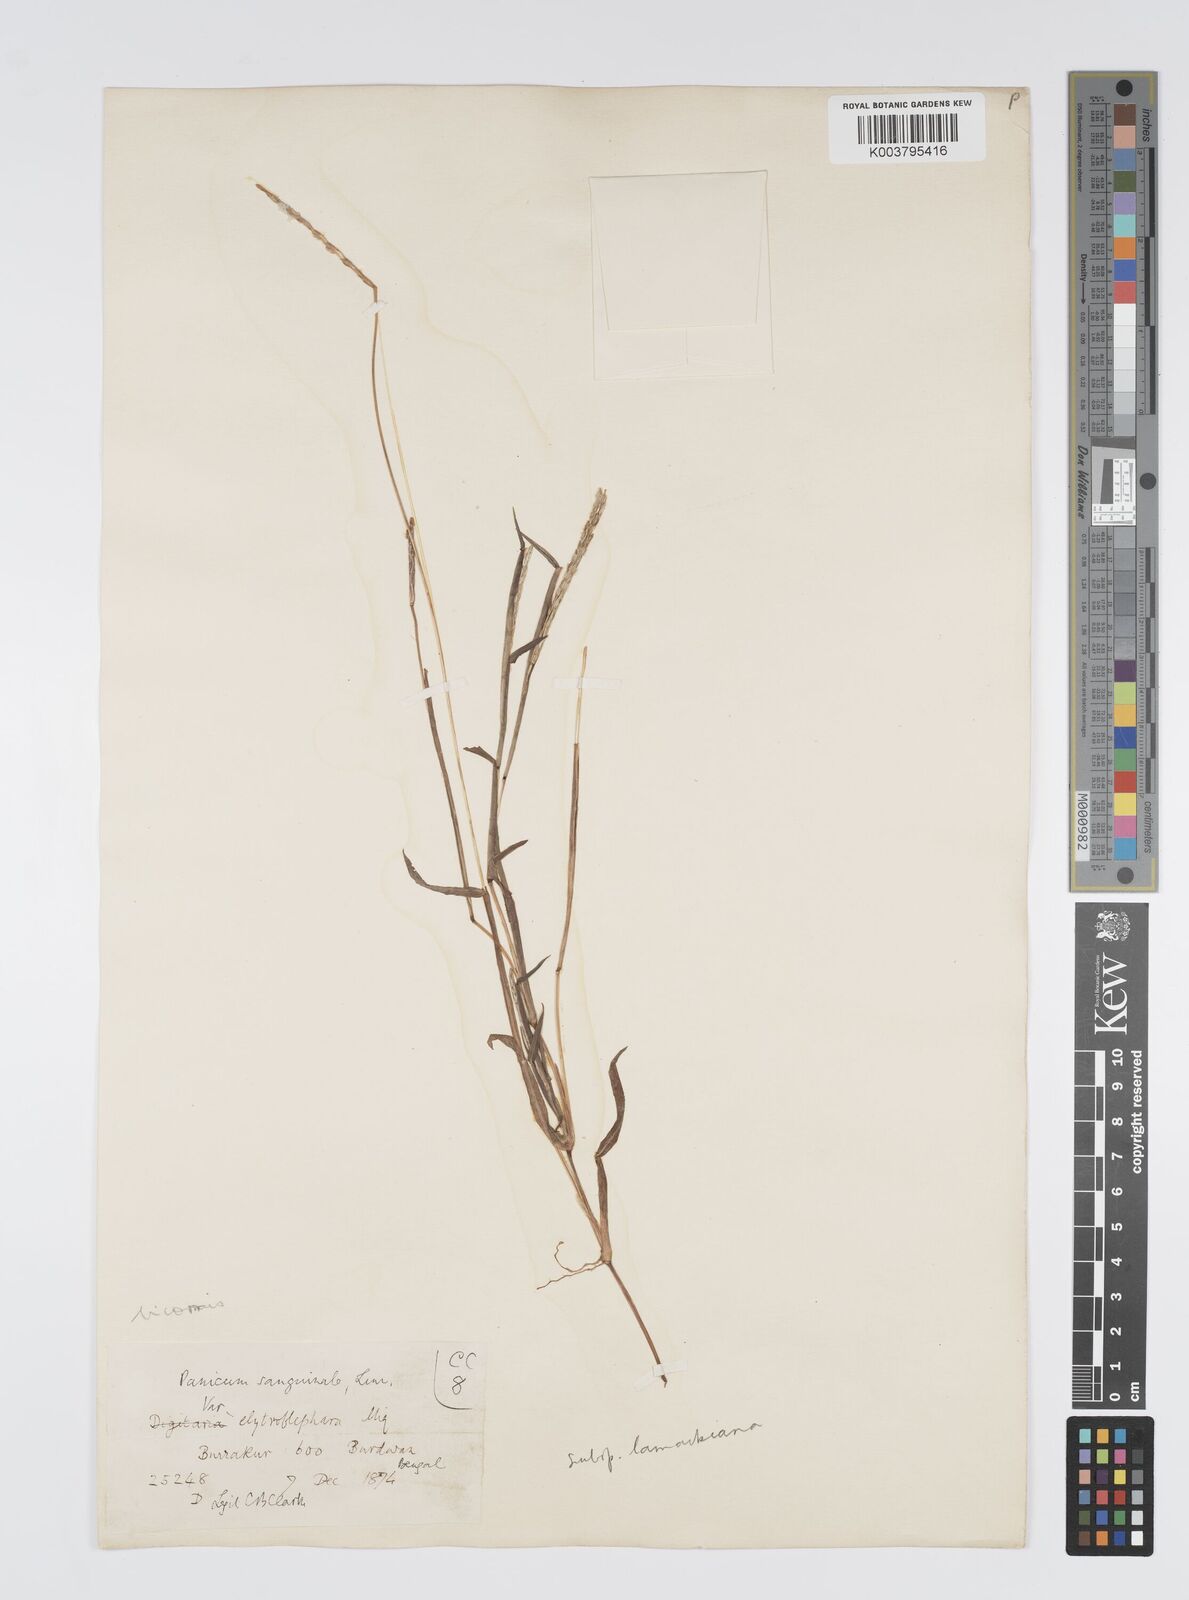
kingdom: Plantae
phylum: Tracheophyta
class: Liliopsida
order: Poales
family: Poaceae
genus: Digitaria
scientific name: Digitaria bicornis
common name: Asian crabgrass
